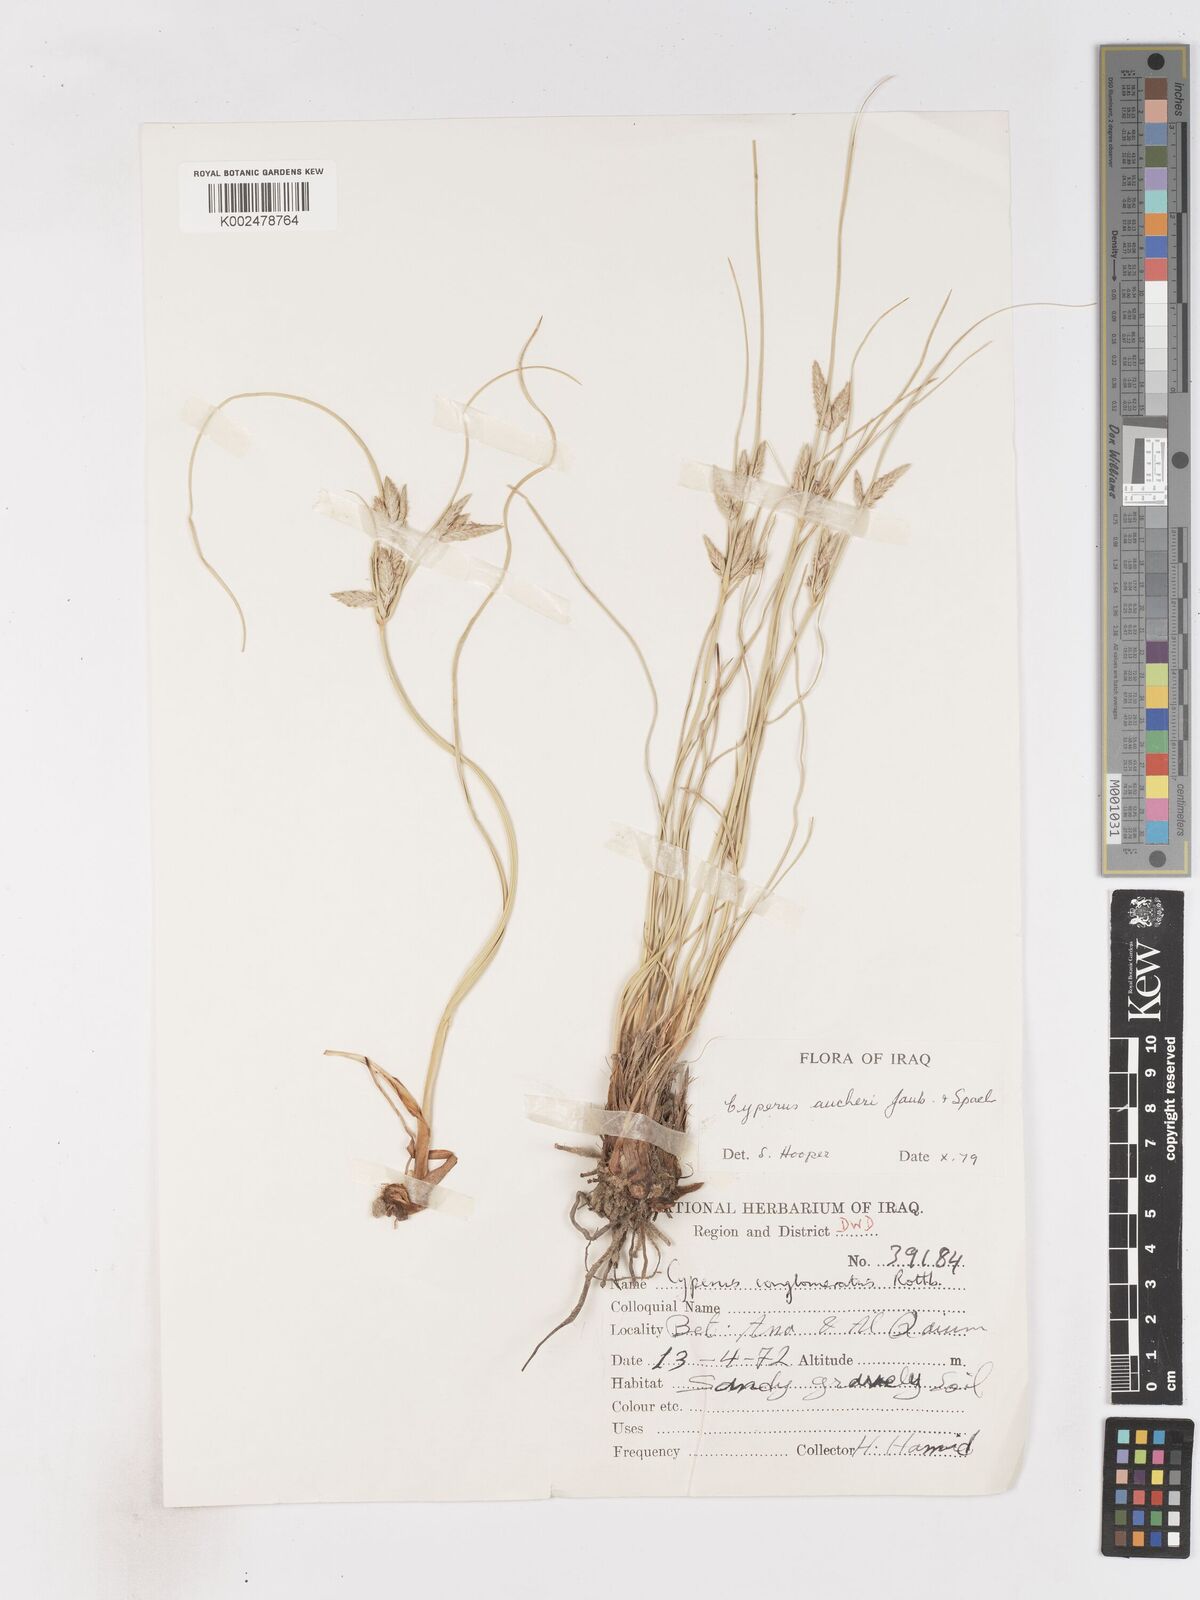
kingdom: Plantae
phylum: Tracheophyta
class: Liliopsida
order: Poales
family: Cyperaceae
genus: Cyperus
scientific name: Cyperus aucheri
